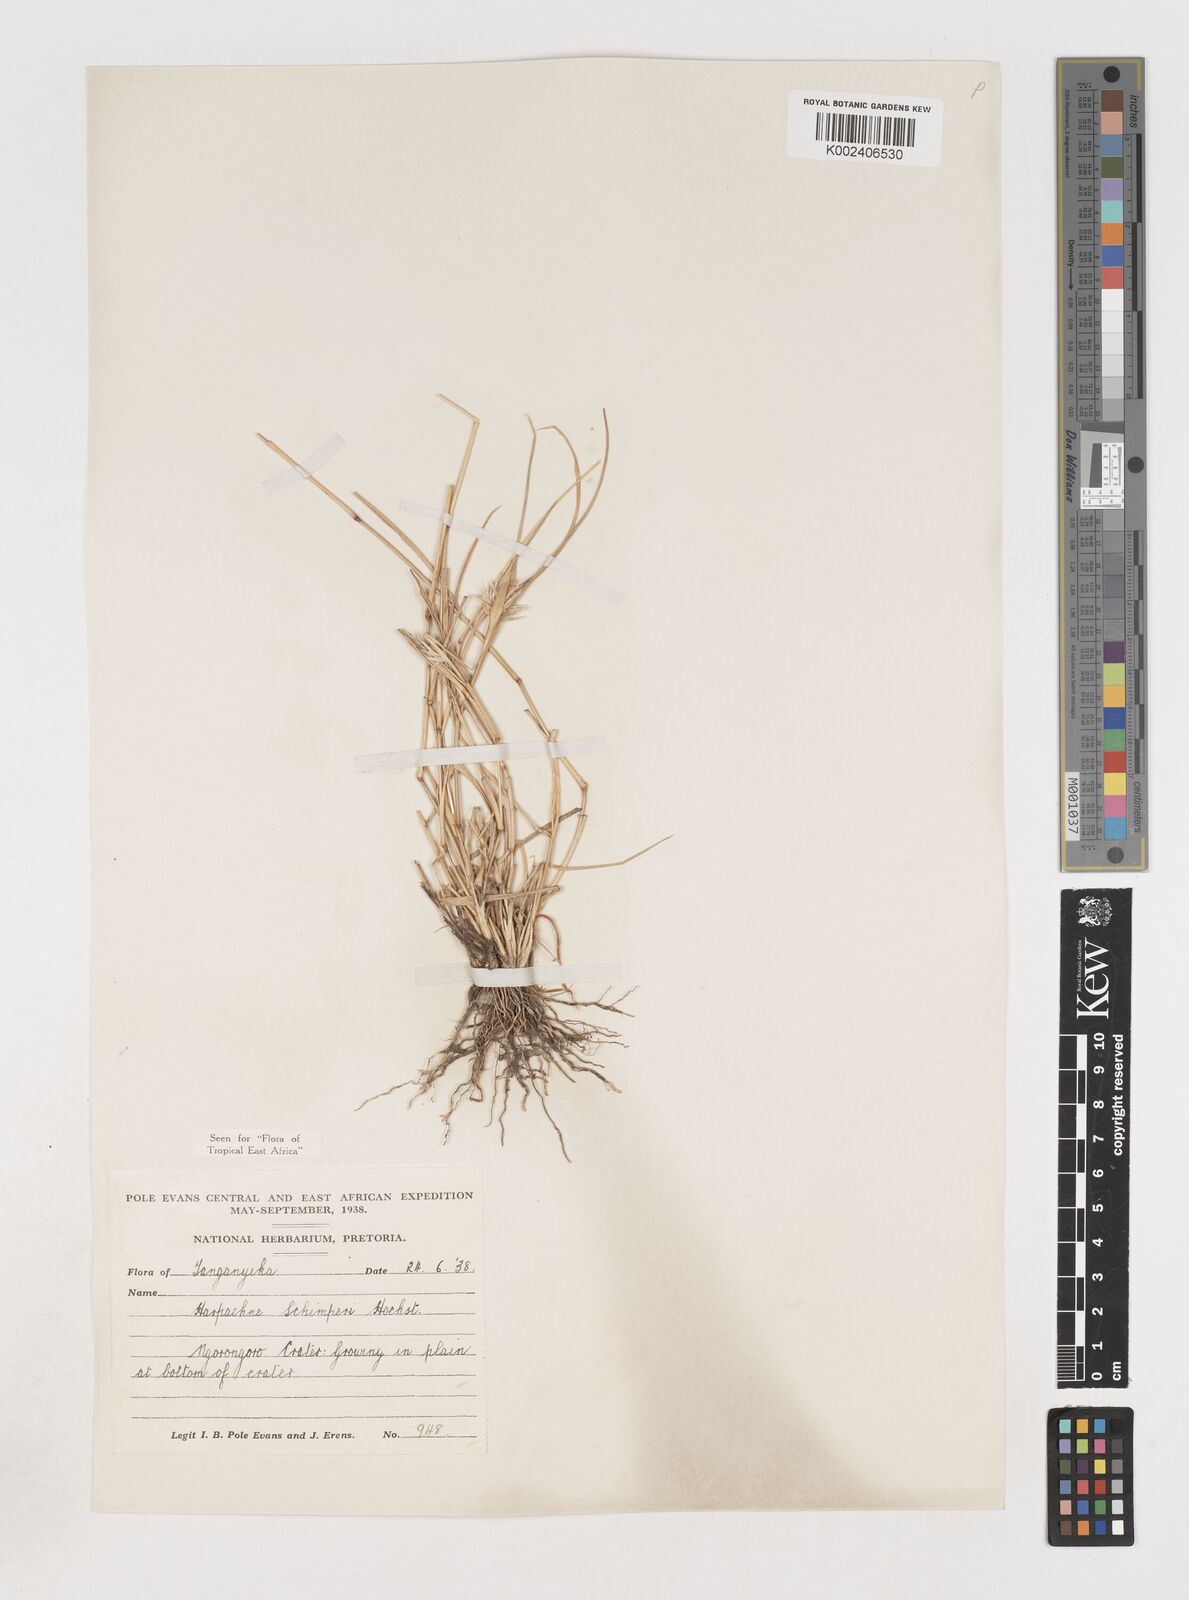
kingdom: Plantae
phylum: Tracheophyta
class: Liliopsida
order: Poales
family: Poaceae
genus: Harpachne
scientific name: Harpachne schimperi
